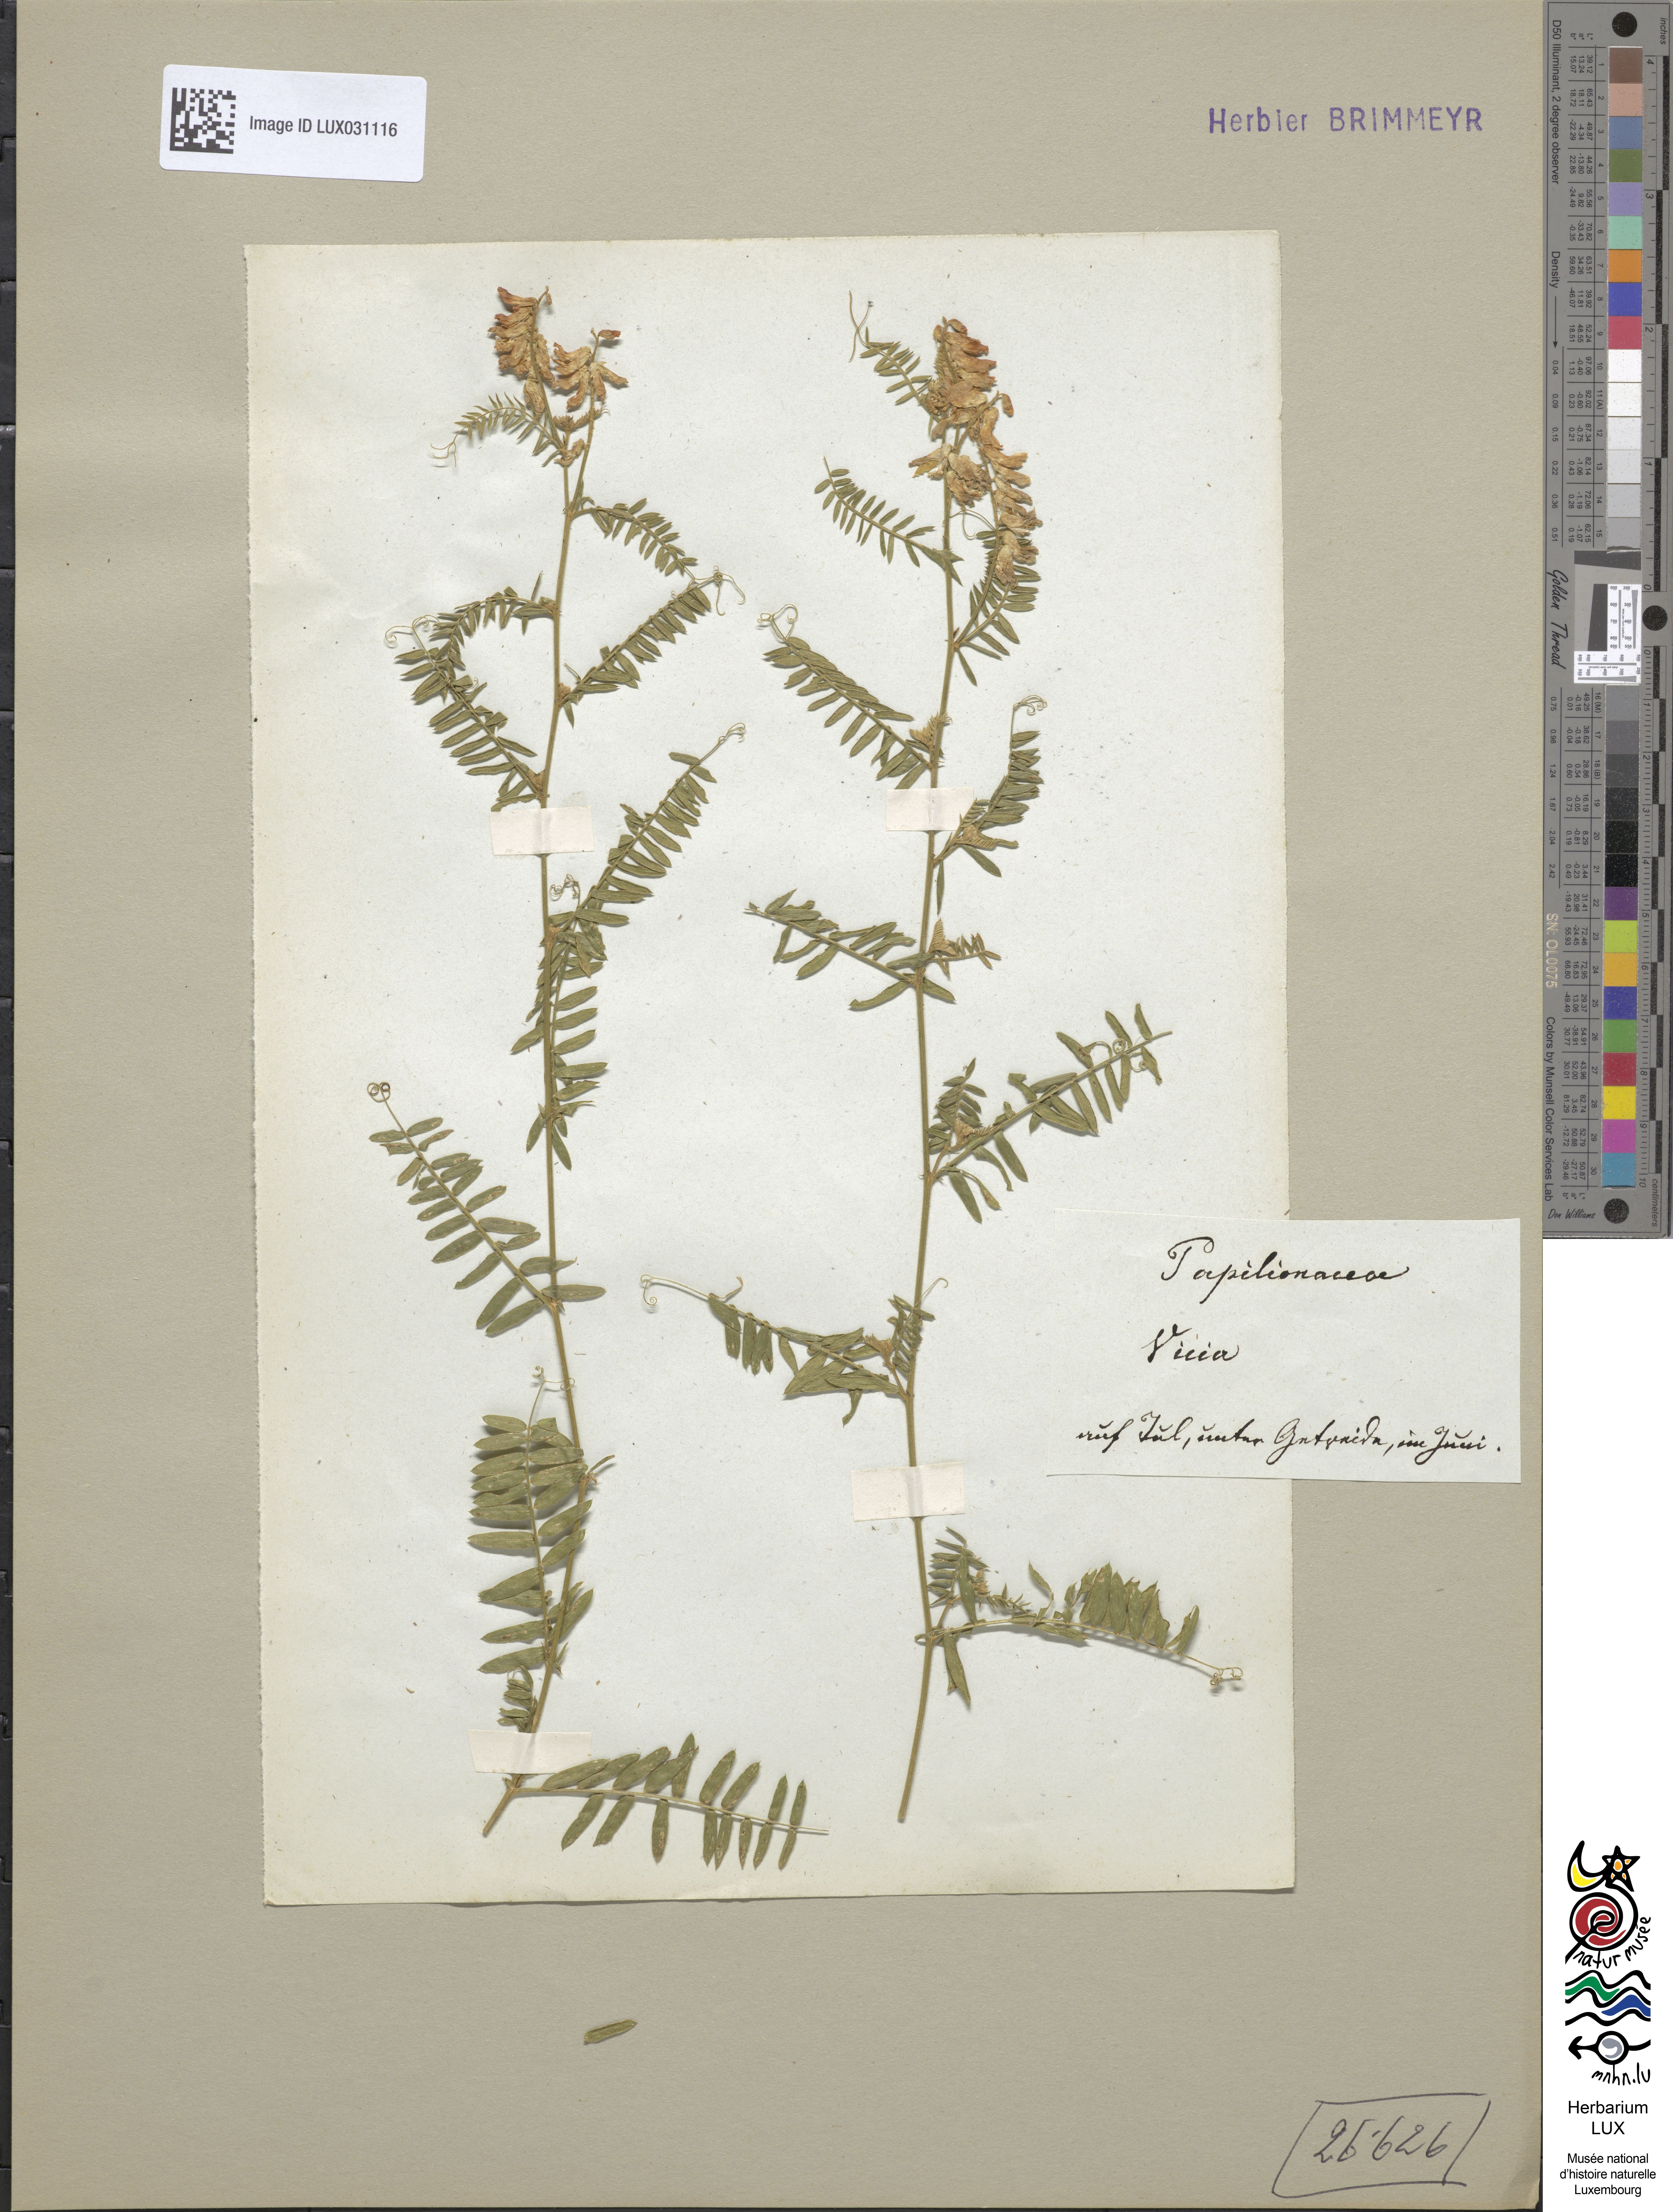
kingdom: Plantae
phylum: Tracheophyta
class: Magnoliopsida
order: Fabales
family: Fabaceae
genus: Vicia
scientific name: Vicia
